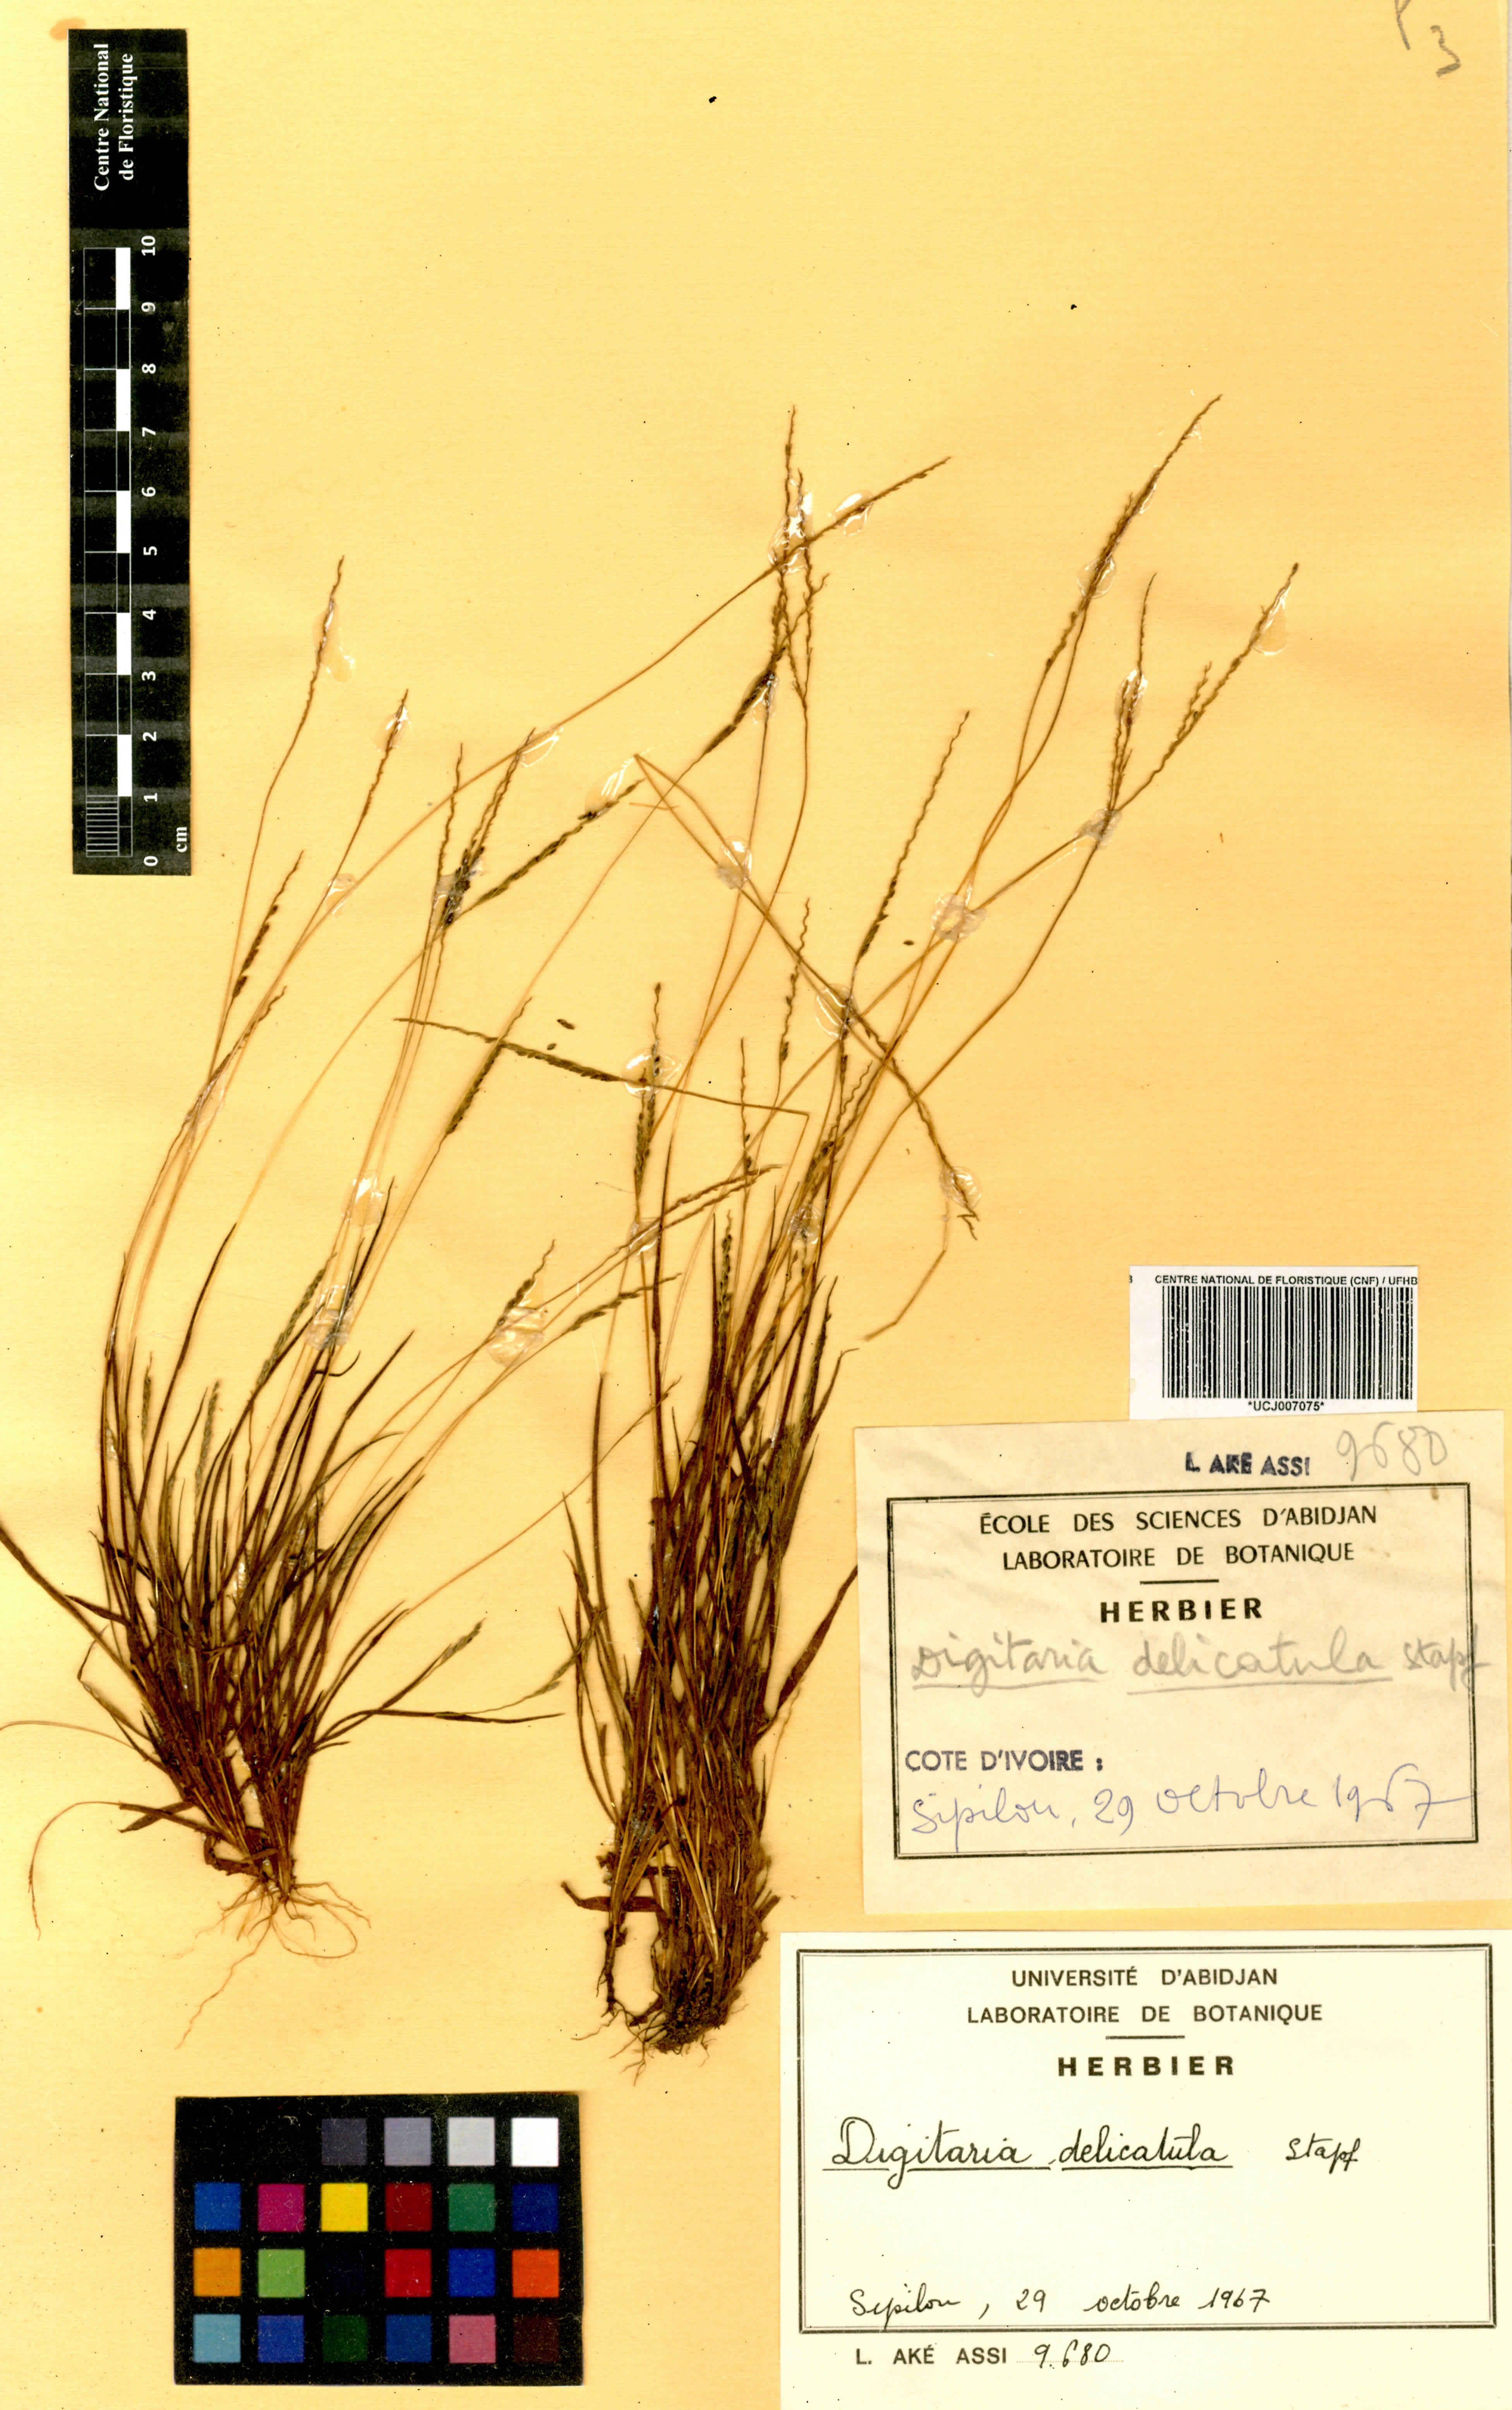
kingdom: Plantae
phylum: Tracheophyta
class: Liliopsida
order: Poales
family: Poaceae
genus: Digitaria
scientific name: Digitaria delicatula
